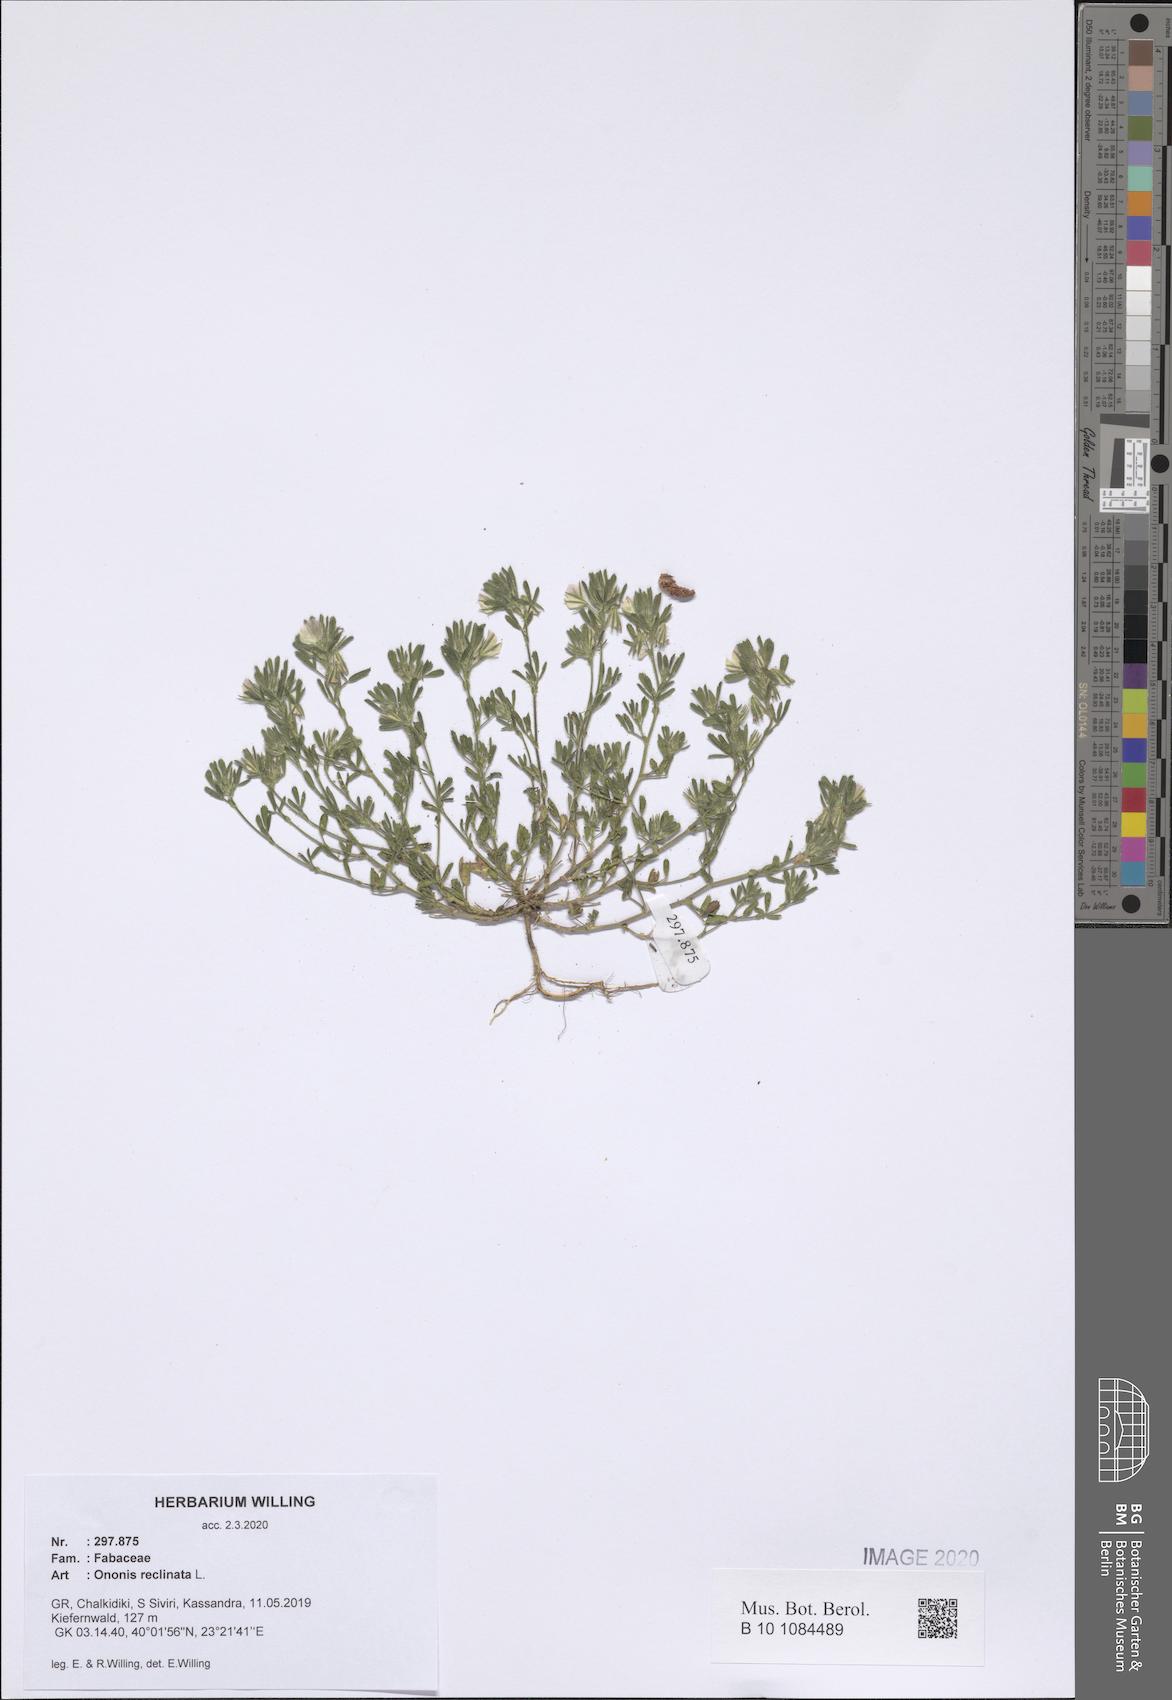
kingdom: Plantae
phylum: Tracheophyta
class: Magnoliopsida
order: Fabales
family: Fabaceae
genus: Ononis
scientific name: Ononis reclinata
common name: Small restharrow
